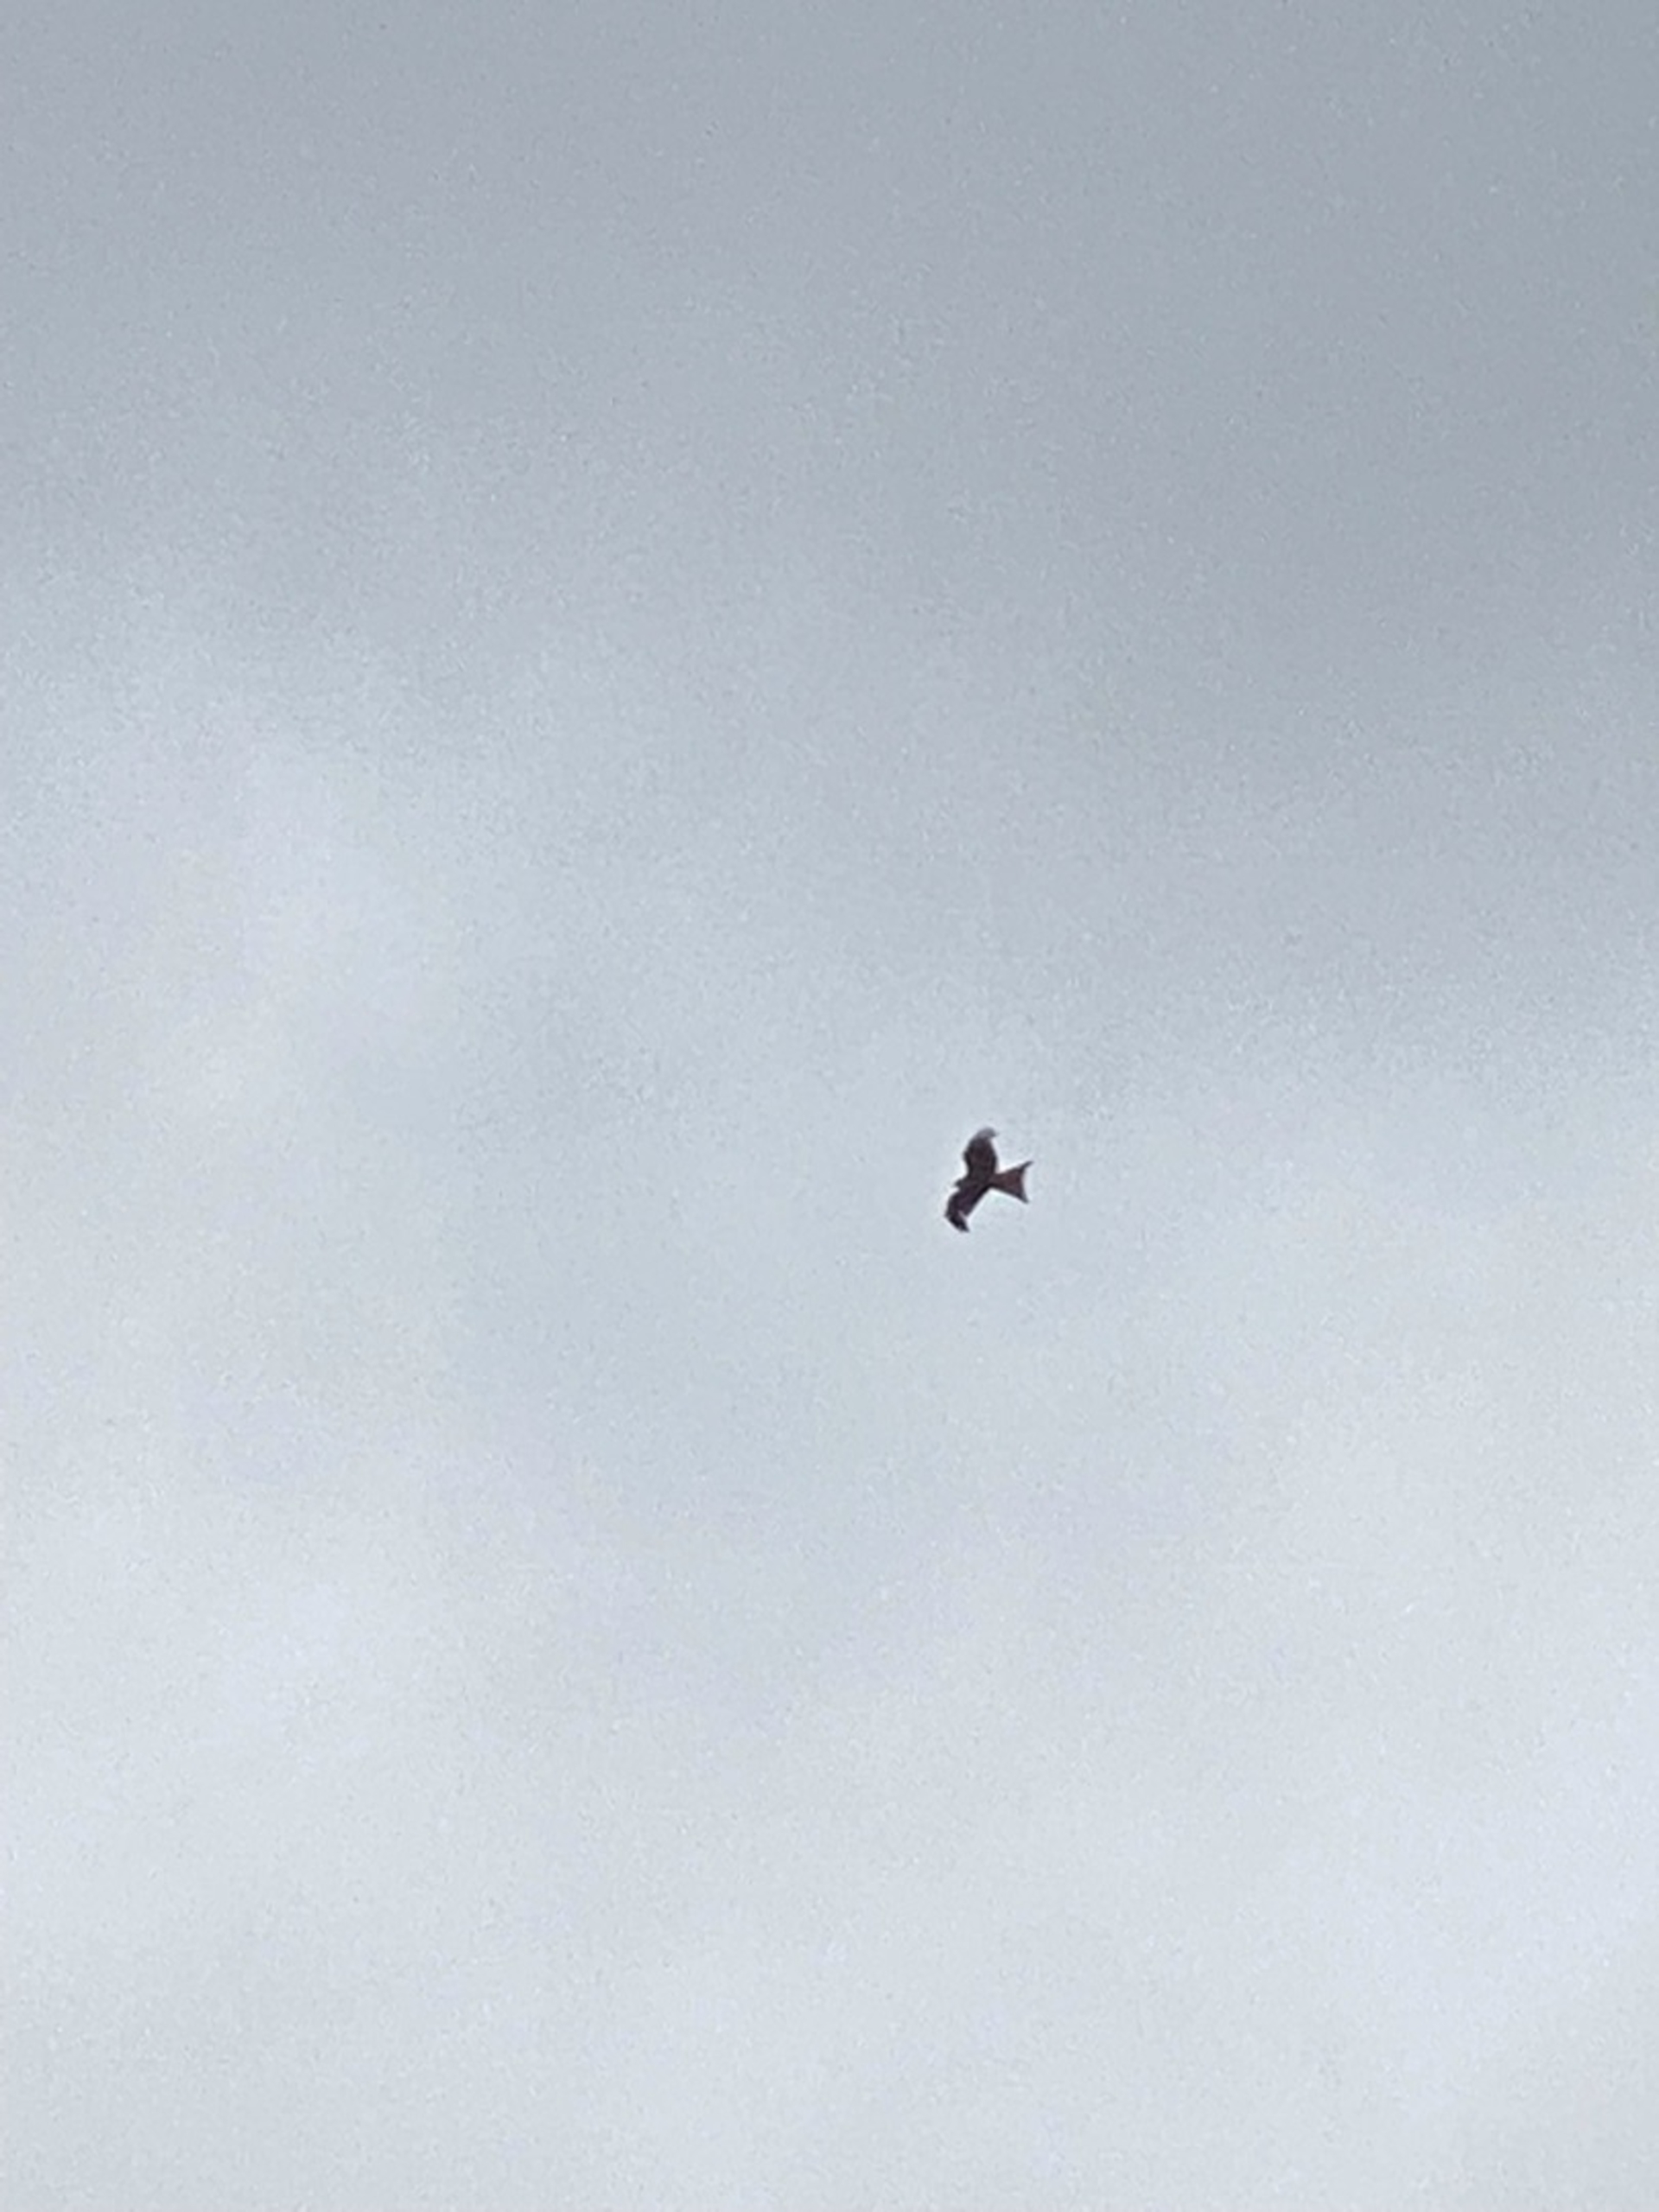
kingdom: Animalia
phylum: Chordata
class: Aves
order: Accipitriformes
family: Accipitridae
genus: Milvus
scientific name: Milvus milvus
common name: Rød glente
